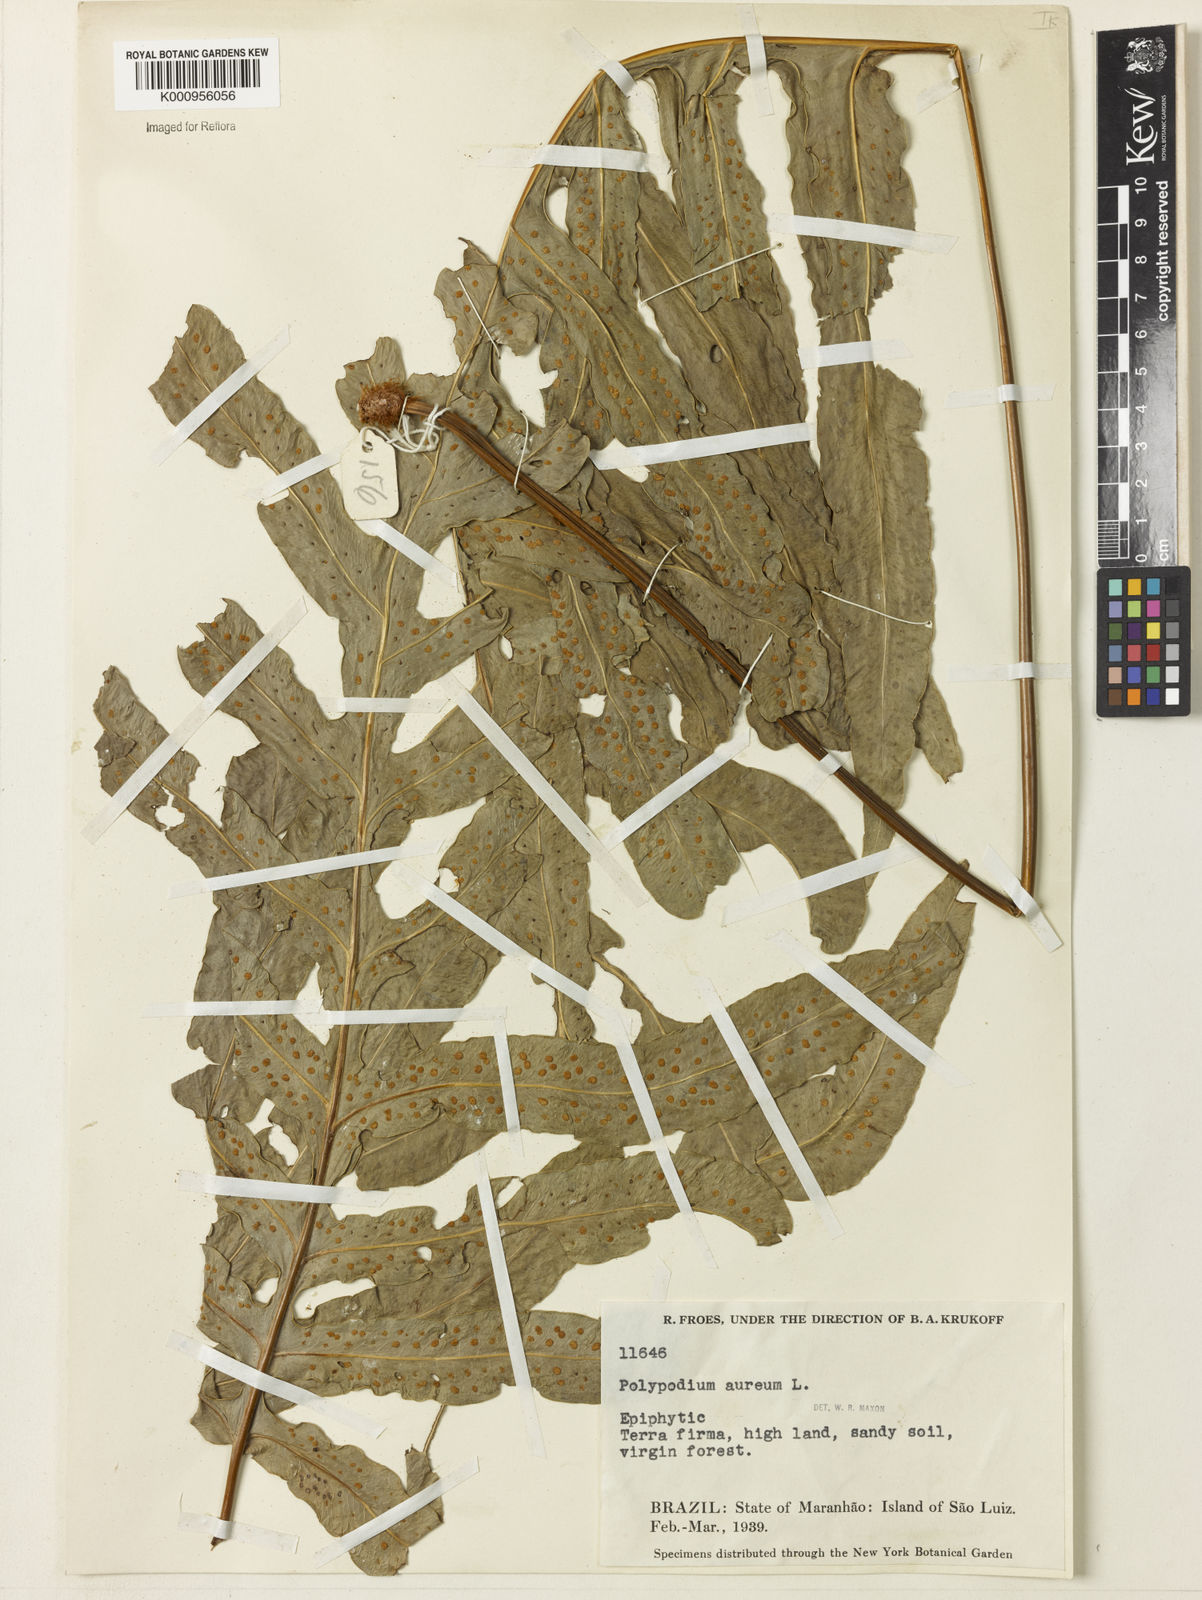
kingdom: Plantae
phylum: Tracheophyta
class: Polypodiopsida
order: Polypodiales
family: Polypodiaceae
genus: Phlebodium
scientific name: Phlebodium aureum
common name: Gold-foot fern
